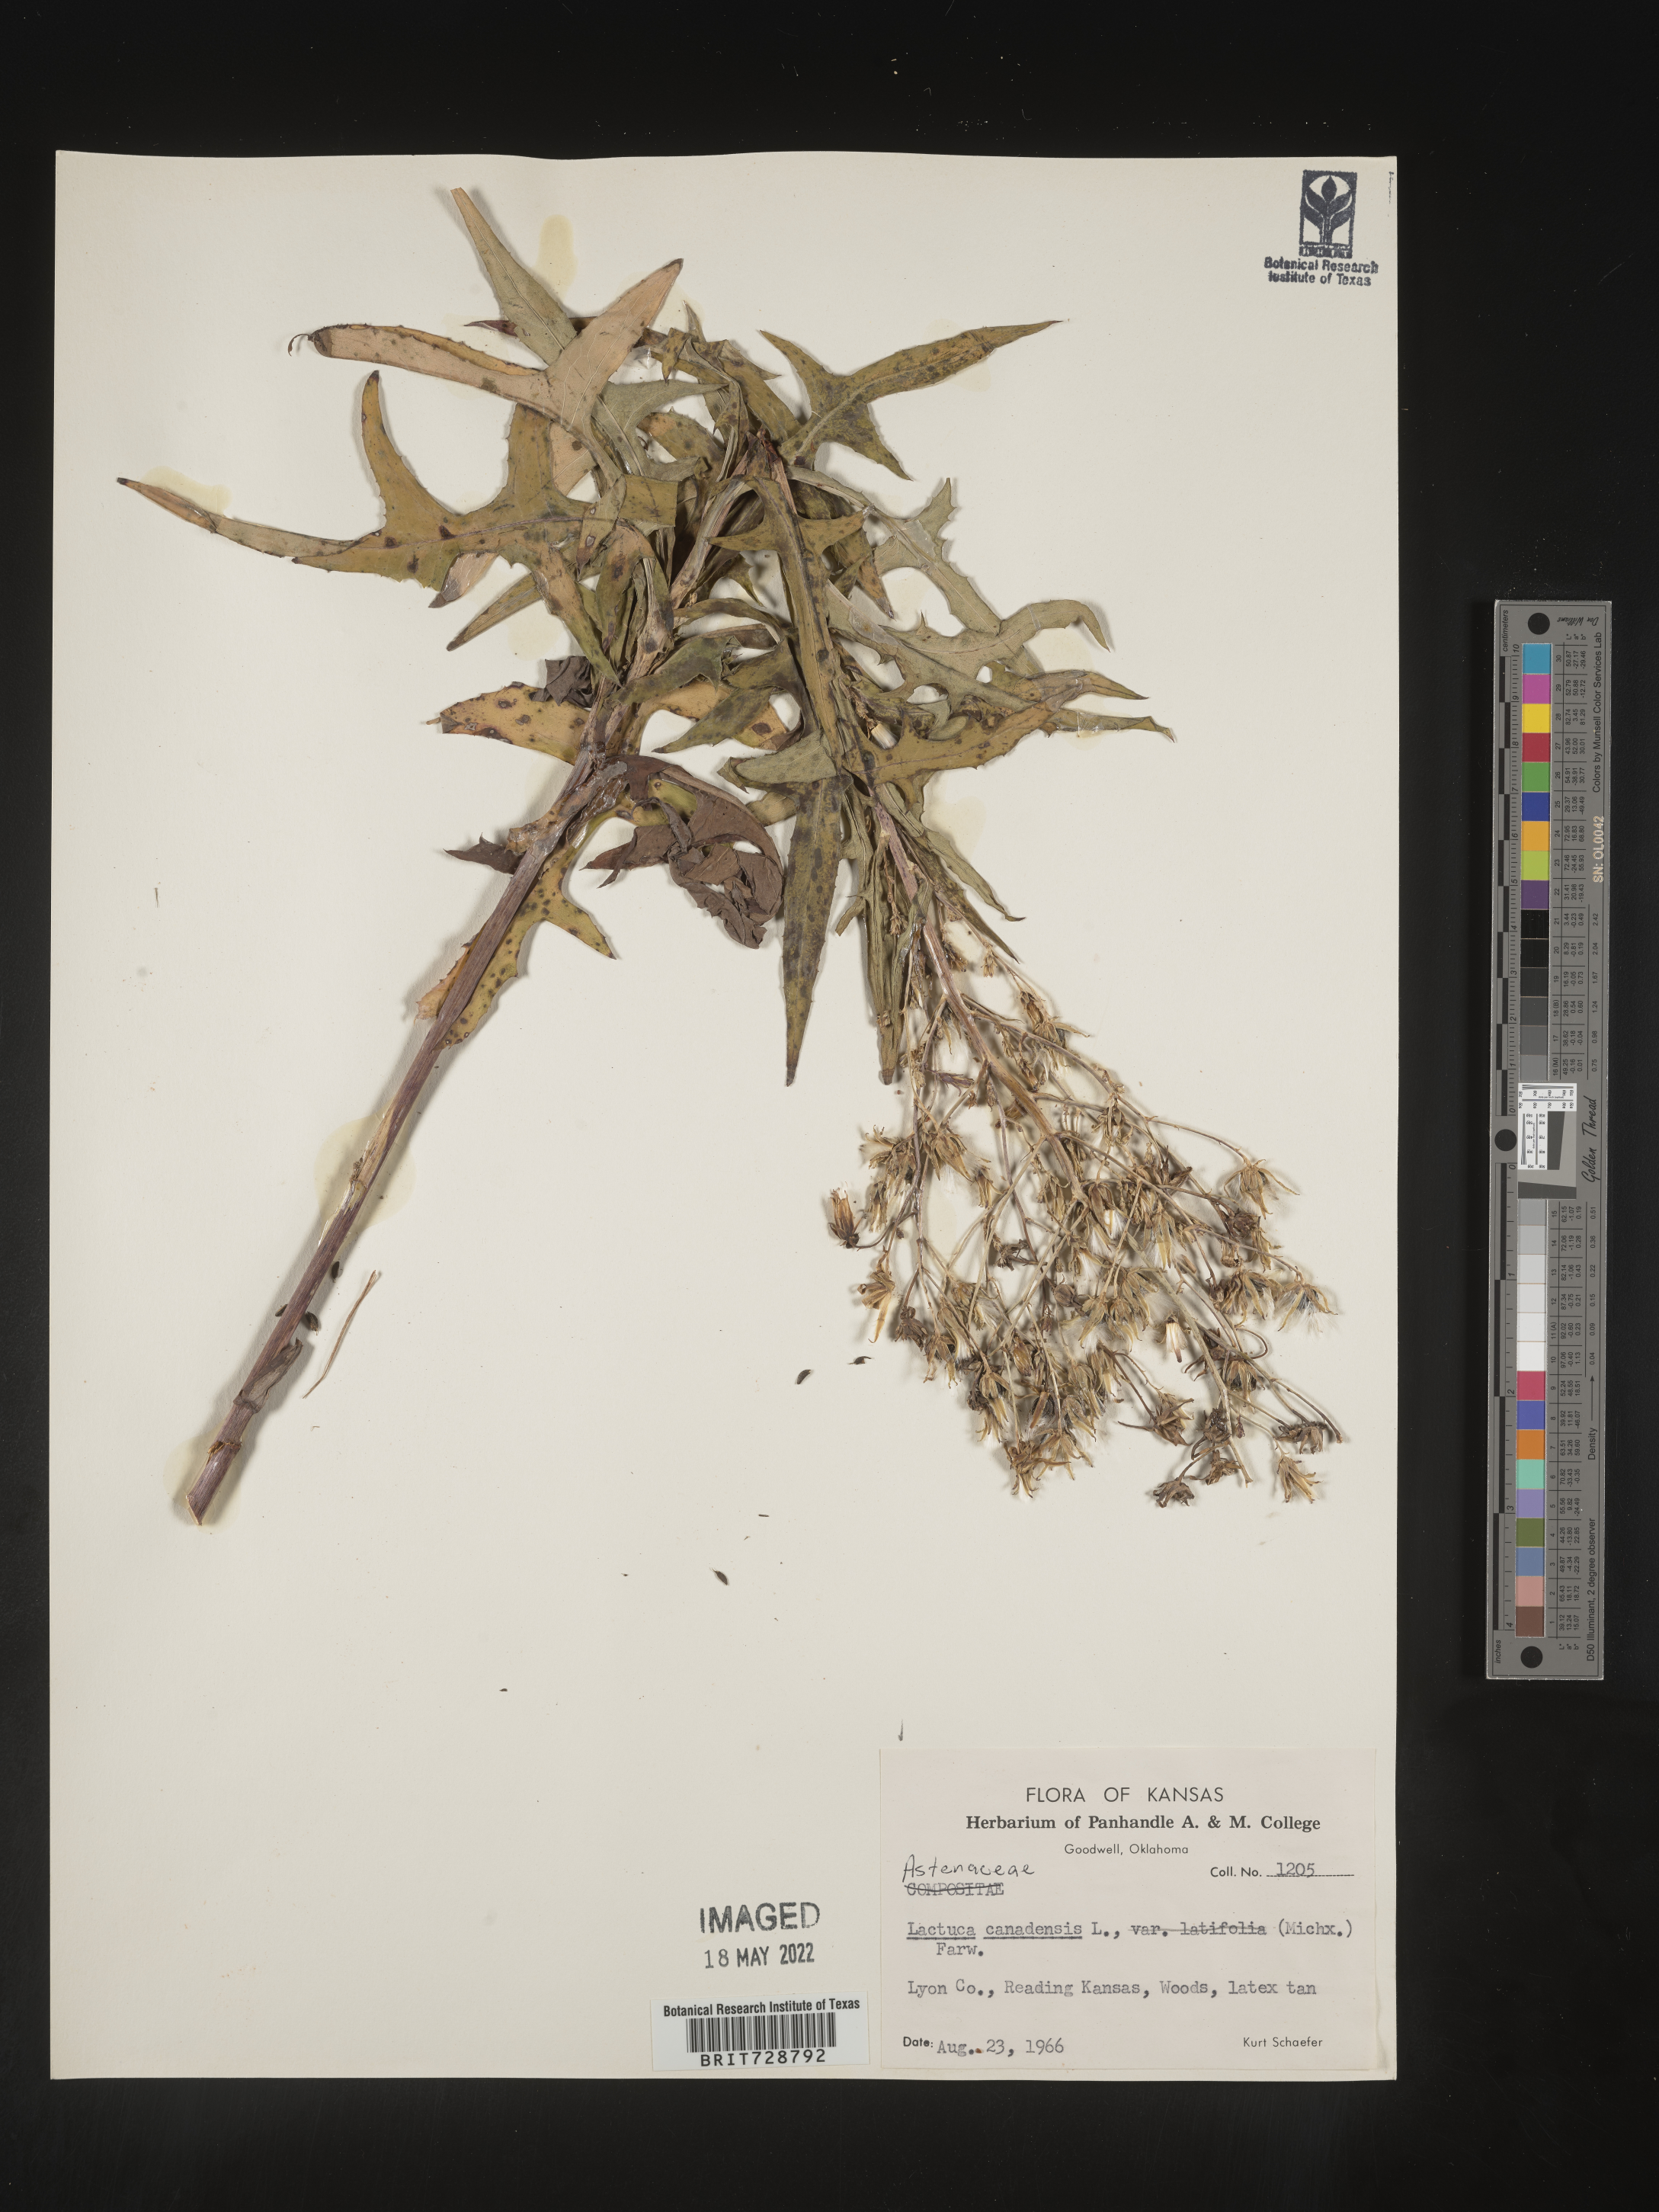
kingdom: Plantae
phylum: Tracheophyta
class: Magnoliopsida
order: Asterales
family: Asteraceae
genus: Lactuca
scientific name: Lactuca canadensis
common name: Canada lettuce
